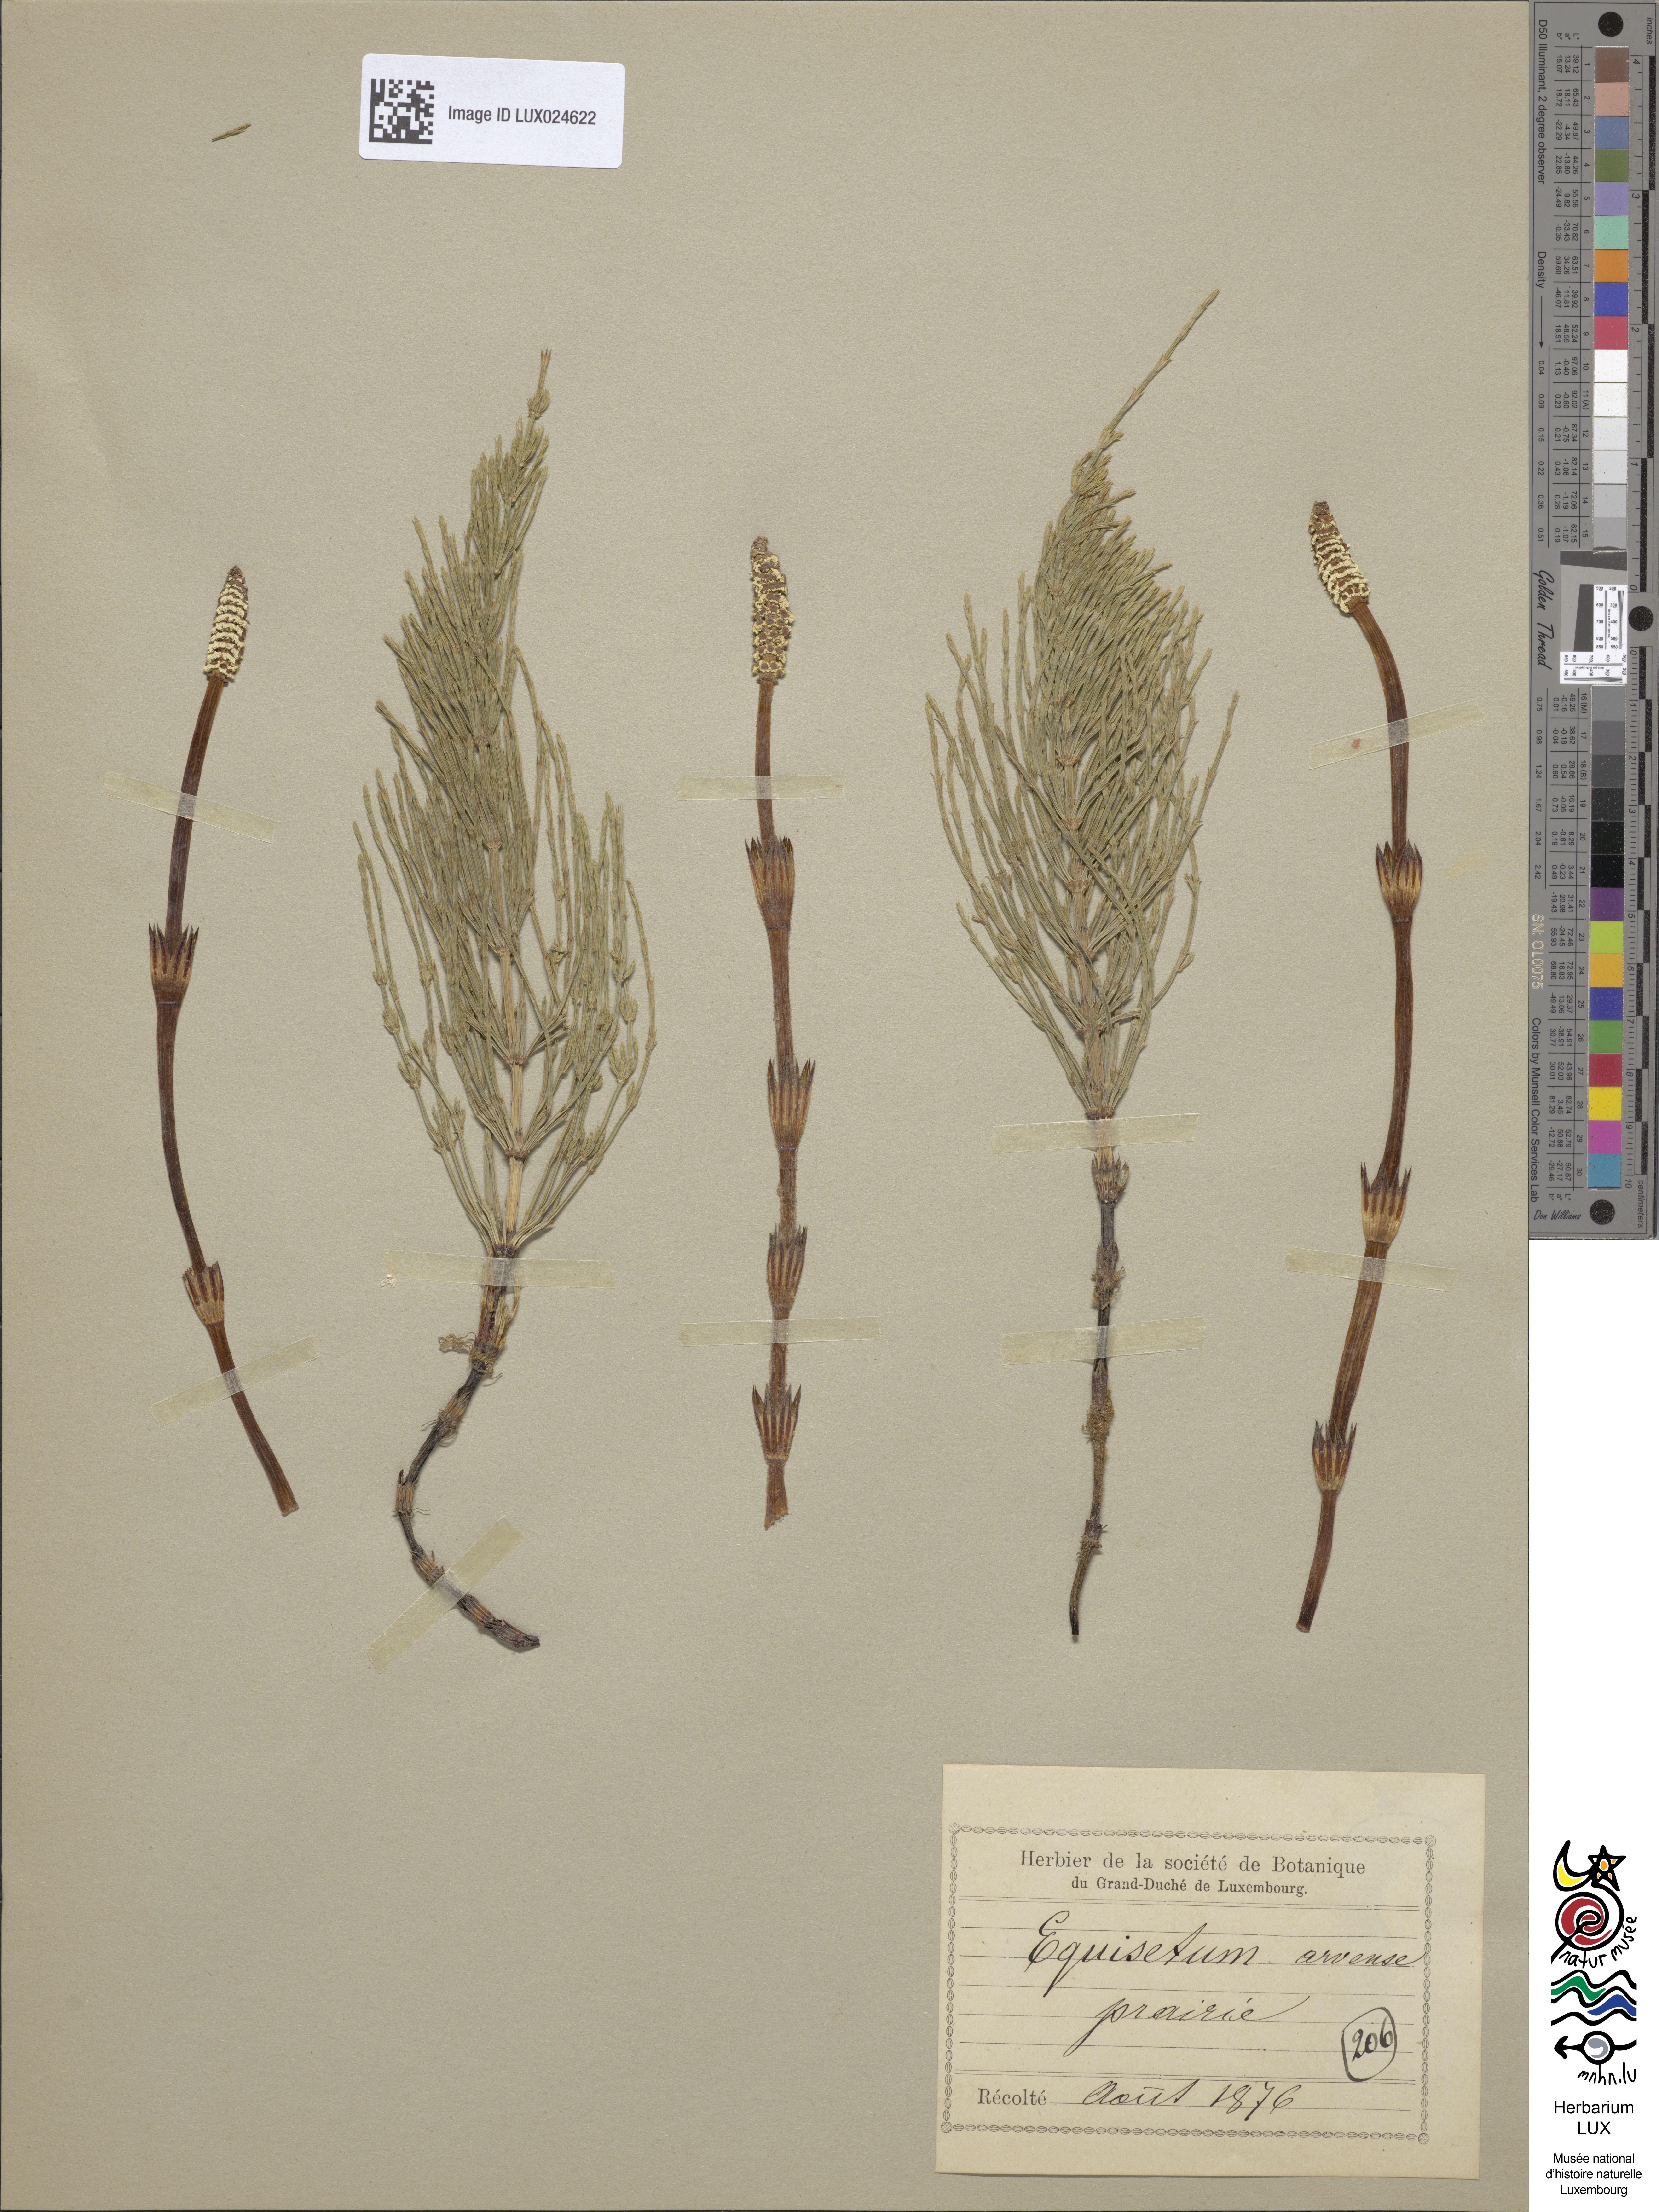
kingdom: Plantae
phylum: Tracheophyta
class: Polypodiopsida
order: Equisetales
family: Equisetaceae
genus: Equisetum
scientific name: Equisetum arvense
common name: Field horsetail
